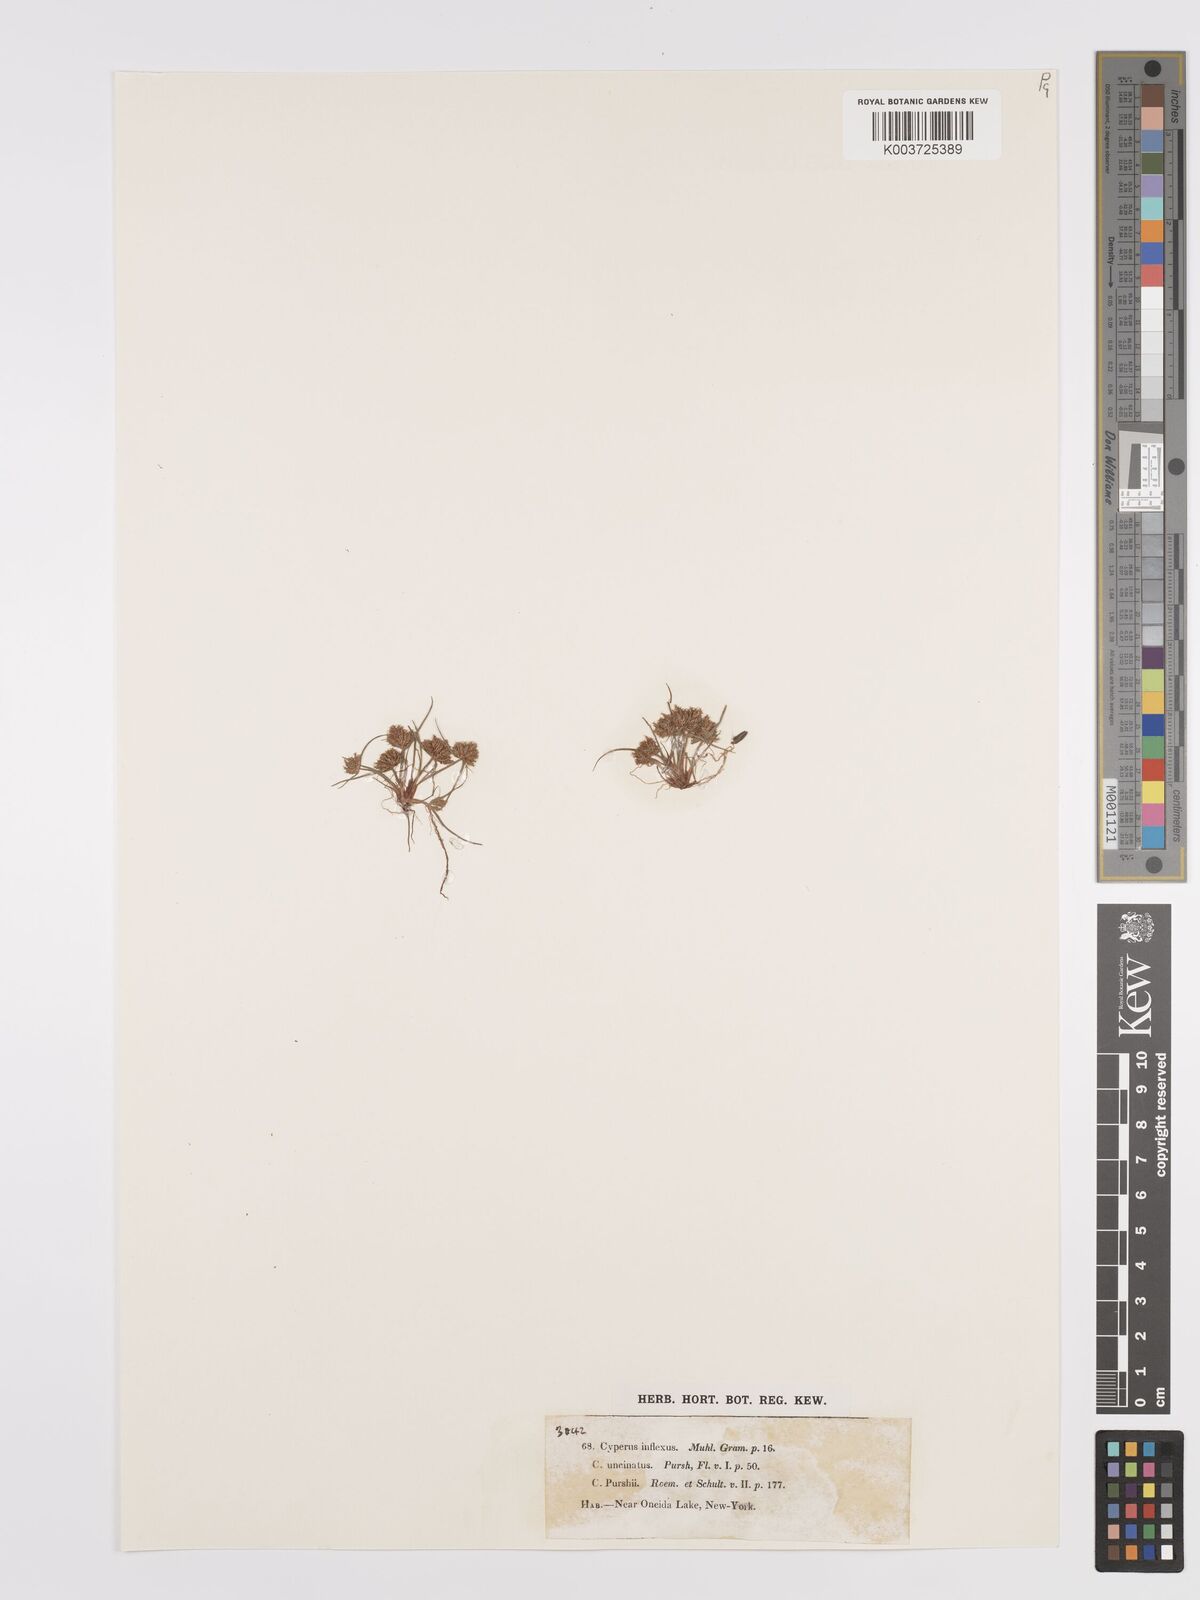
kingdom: Plantae
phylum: Tracheophyta
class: Liliopsida
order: Poales
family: Cyperaceae
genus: Cyperus
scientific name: Cyperus squarrosus
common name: Awned cyperus
